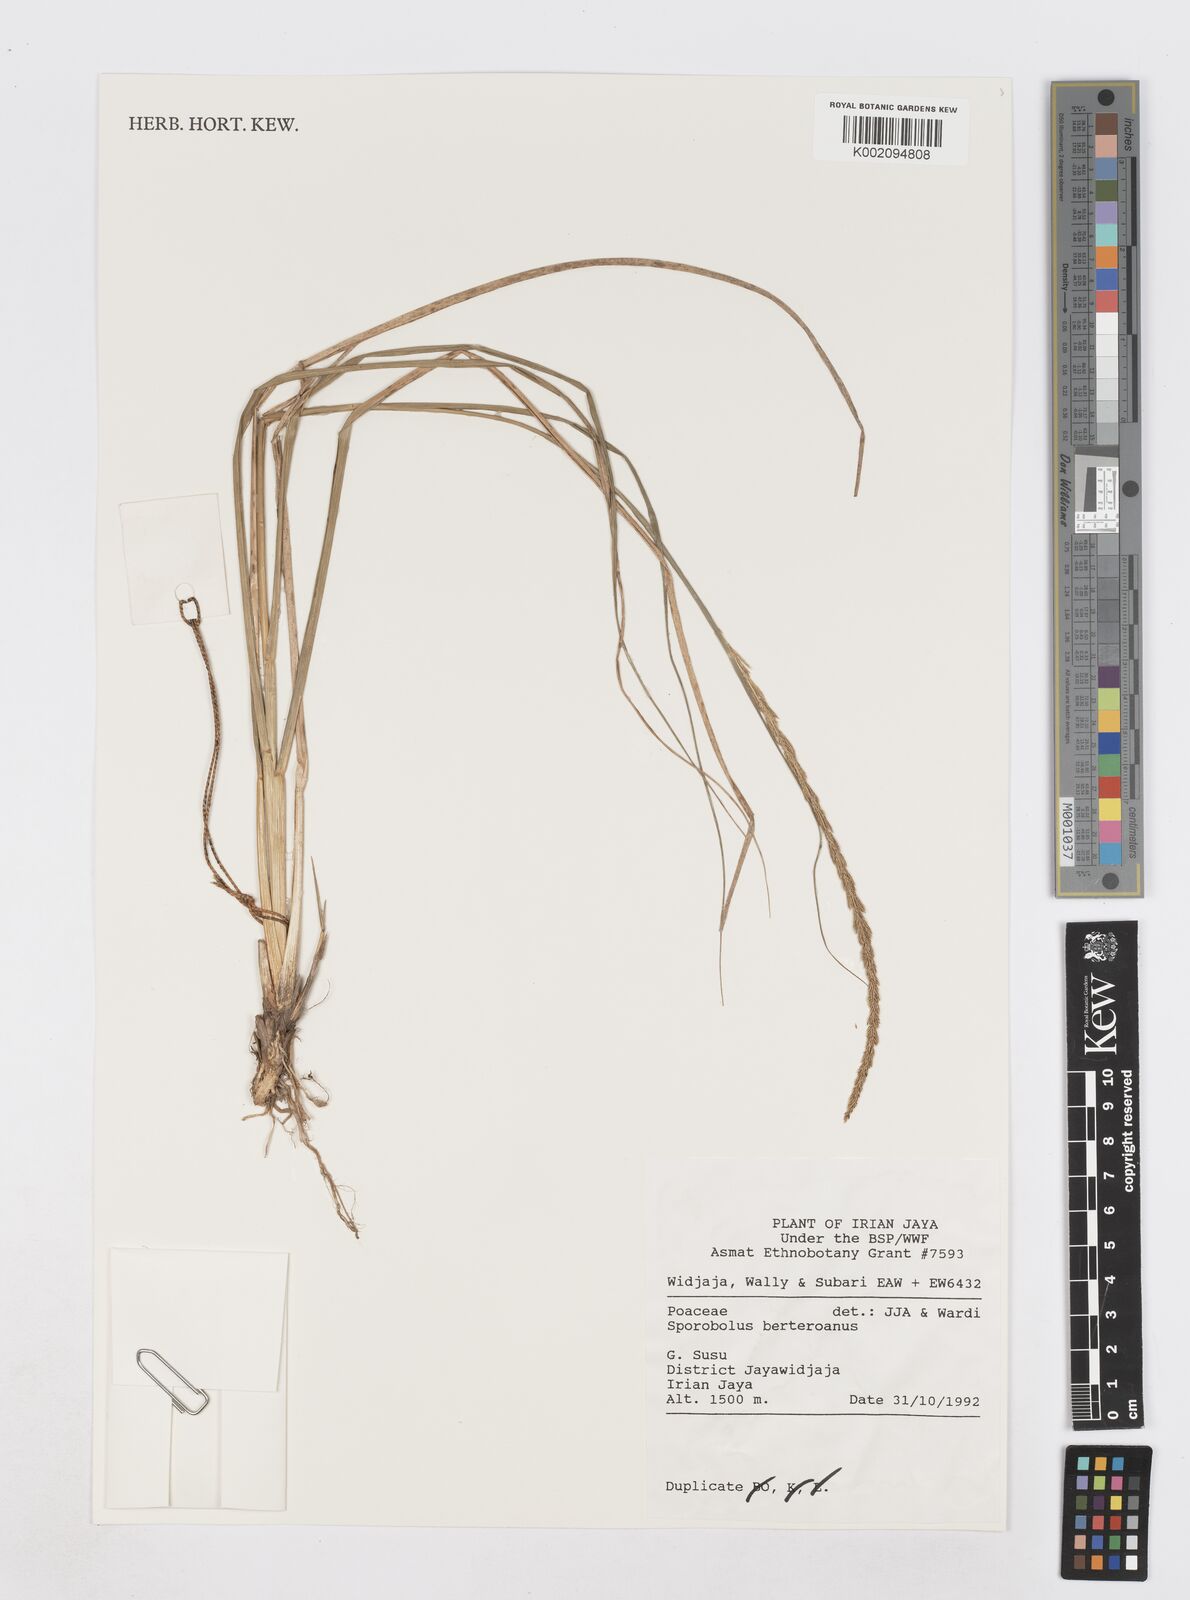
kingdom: Plantae
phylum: Tracheophyta
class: Liliopsida
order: Poales
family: Poaceae
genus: Sporobolus
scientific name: Sporobolus fertilis
